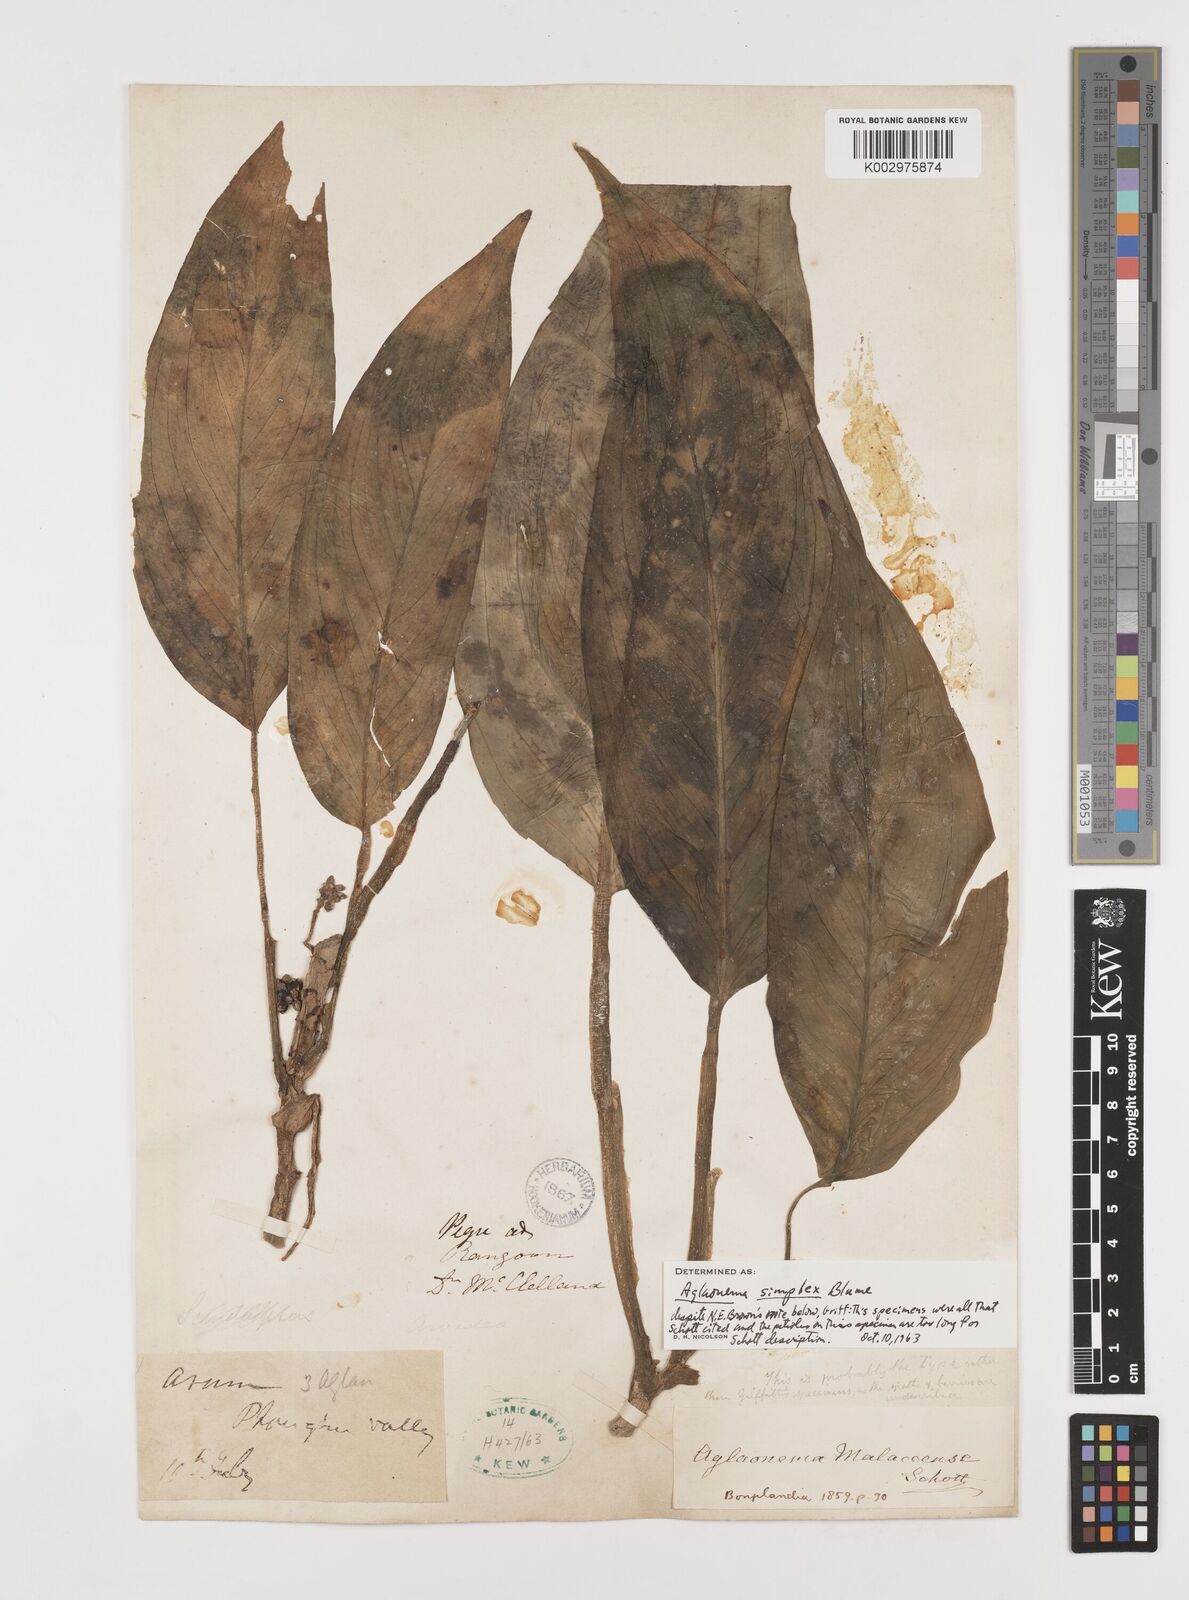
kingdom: Plantae
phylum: Tracheophyta
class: Liliopsida
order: Alismatales
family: Araceae
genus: Aglaonema
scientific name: Aglaonema simplex
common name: Malayan-sword
